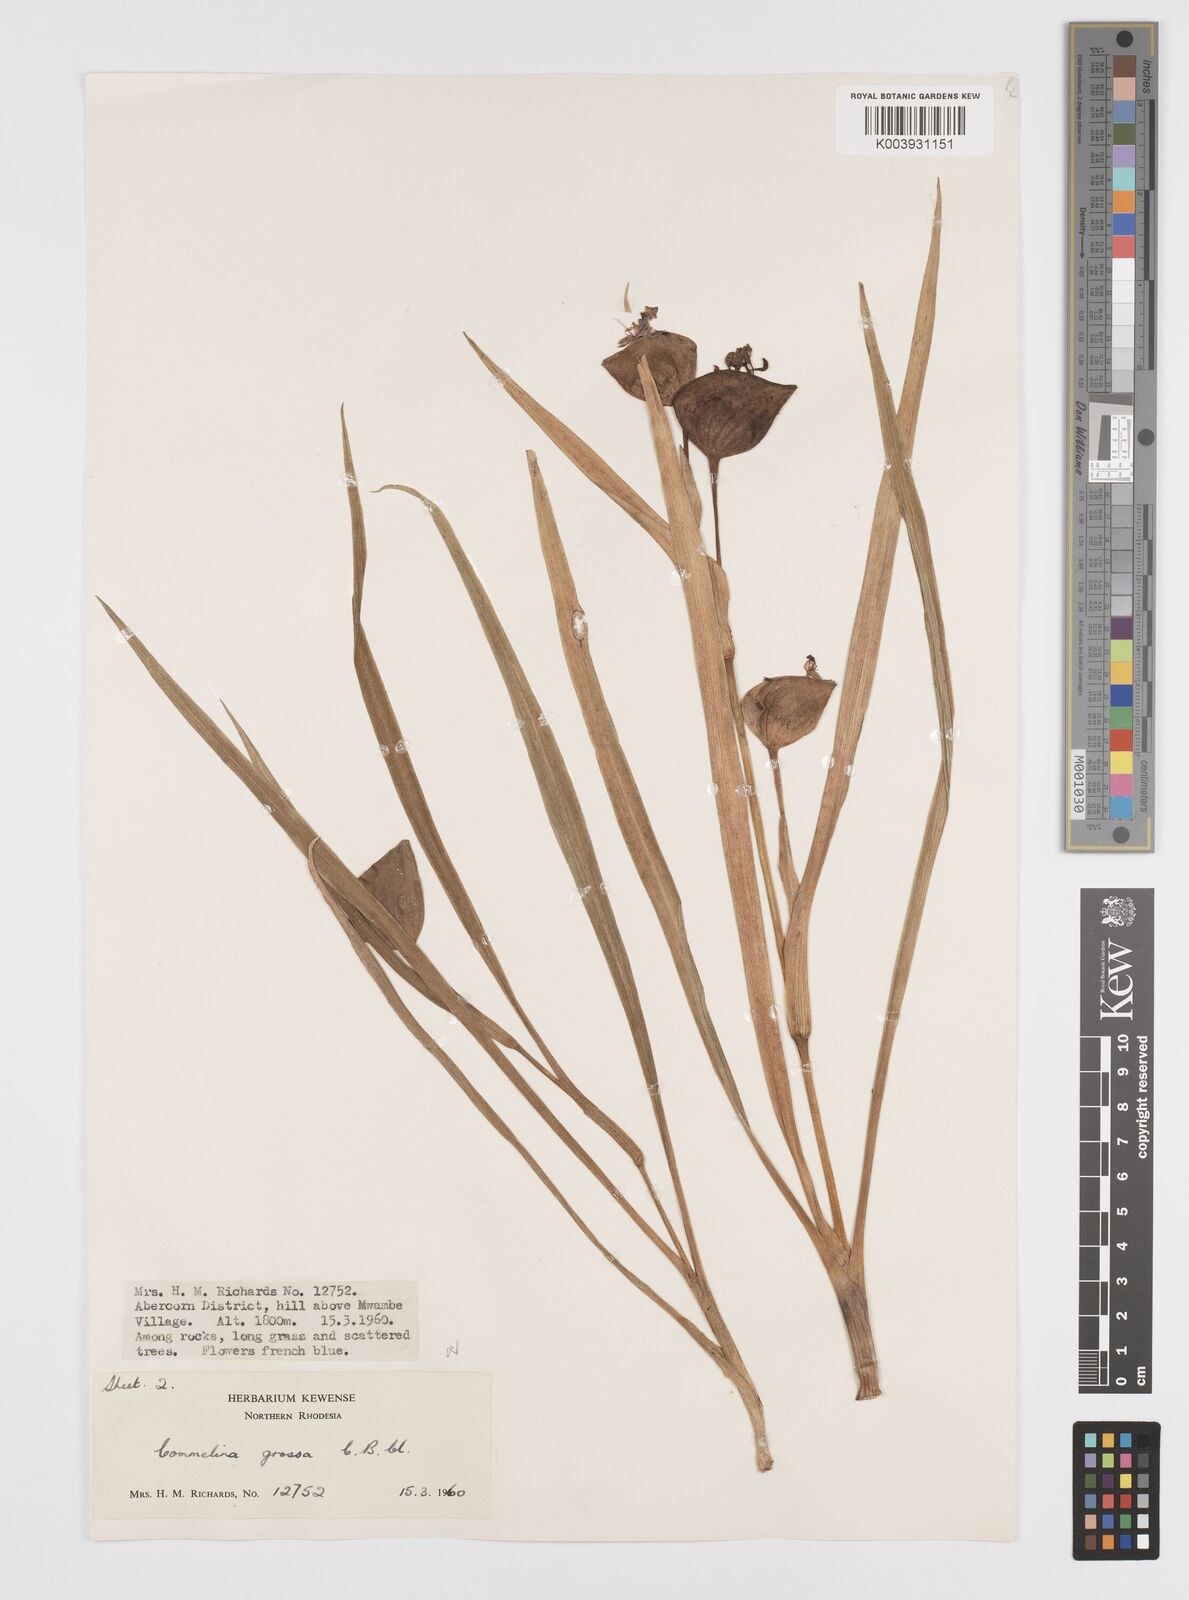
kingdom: Plantae
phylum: Tracheophyta
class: Liliopsida
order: Commelinales
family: Commelinaceae
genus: Commelina
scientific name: Commelina grossa
